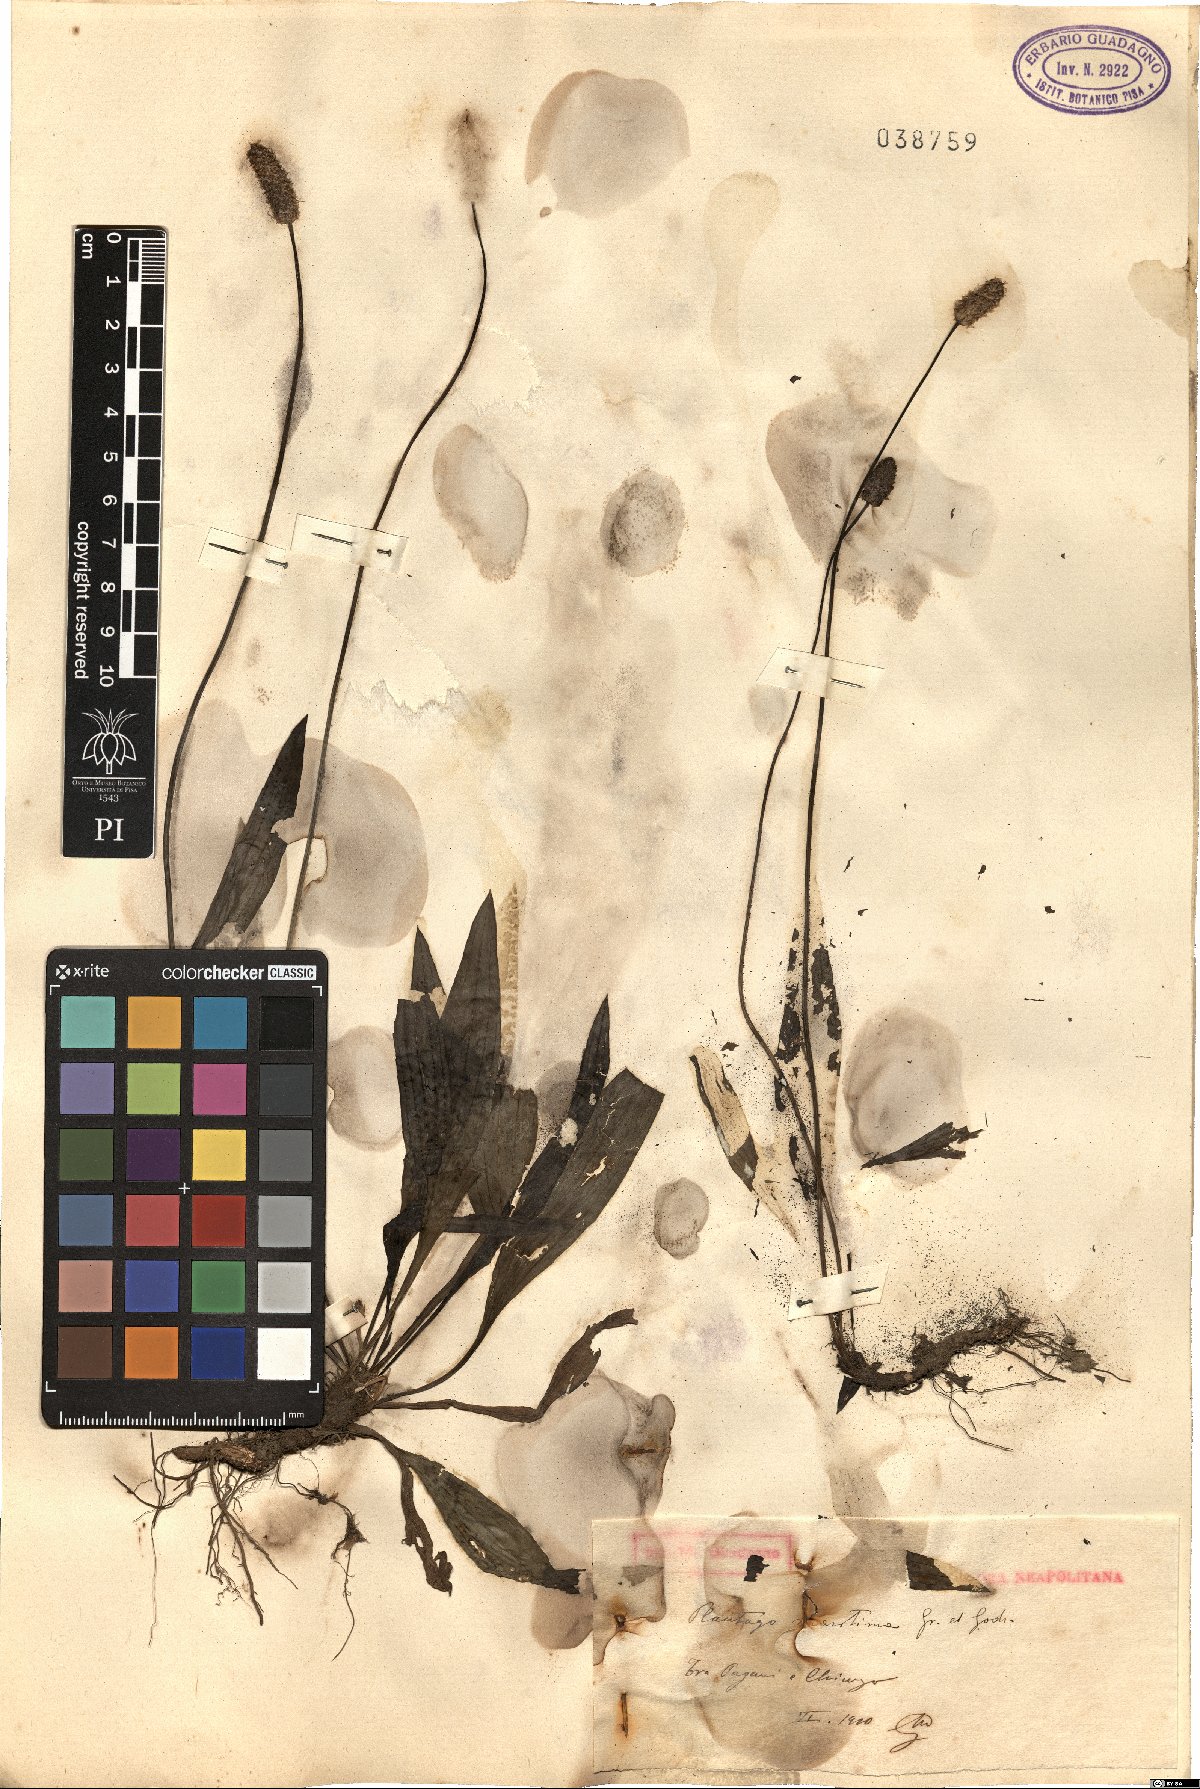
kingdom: Plantae
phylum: Tracheophyta
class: Magnoliopsida
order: Lamiales
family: Plantaginaceae
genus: Plantago
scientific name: Plantago maritima
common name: Sea plantain
